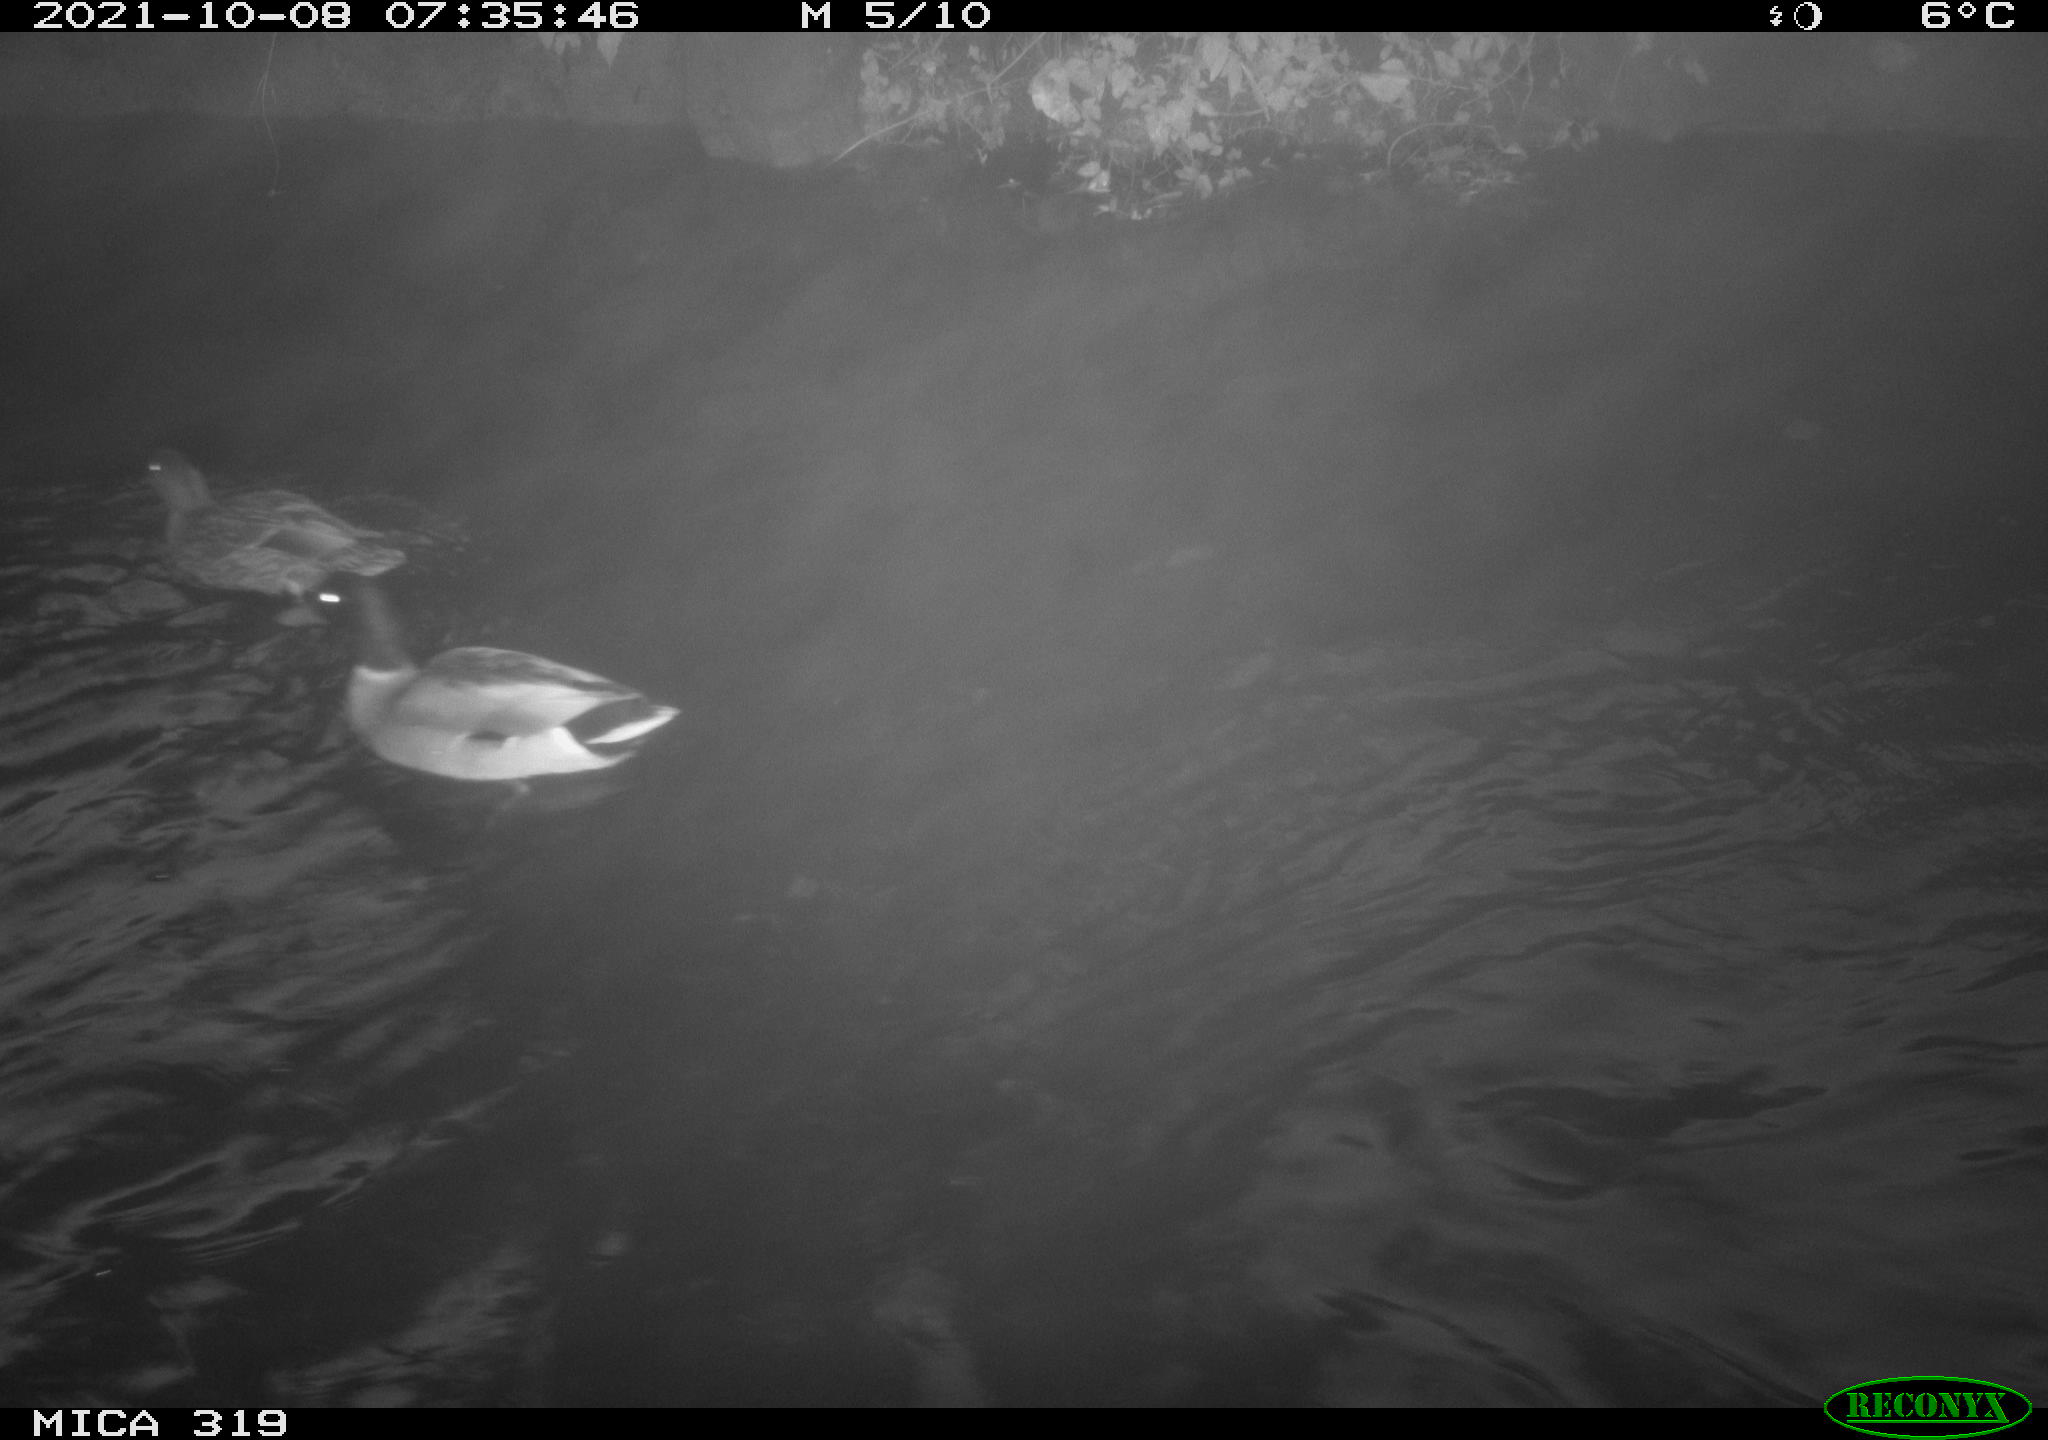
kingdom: Animalia
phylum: Chordata
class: Aves
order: Anseriformes
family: Anatidae
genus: Anas
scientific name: Anas platyrhynchos
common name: Mallard
